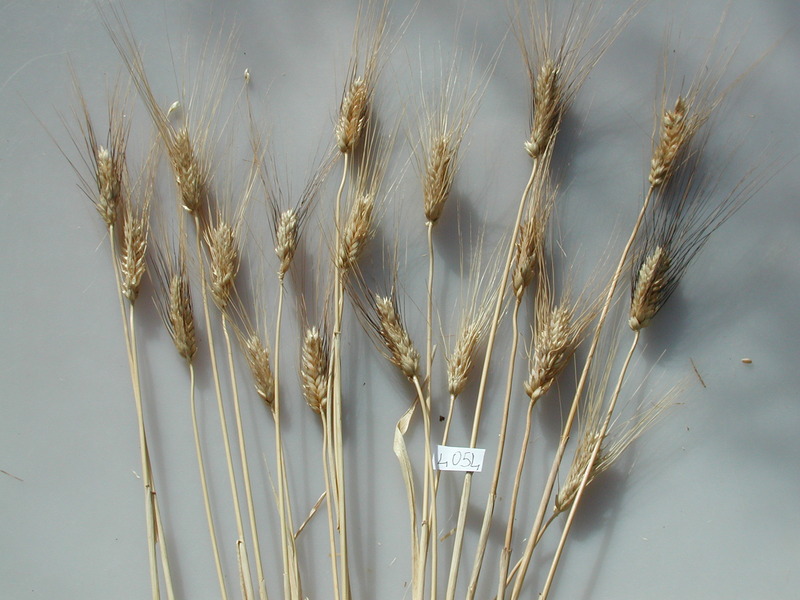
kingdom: Plantae
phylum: Tracheophyta
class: Liliopsida
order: Poales
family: Poaceae
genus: Triticum
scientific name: Triticum aestivum
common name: Wheat
